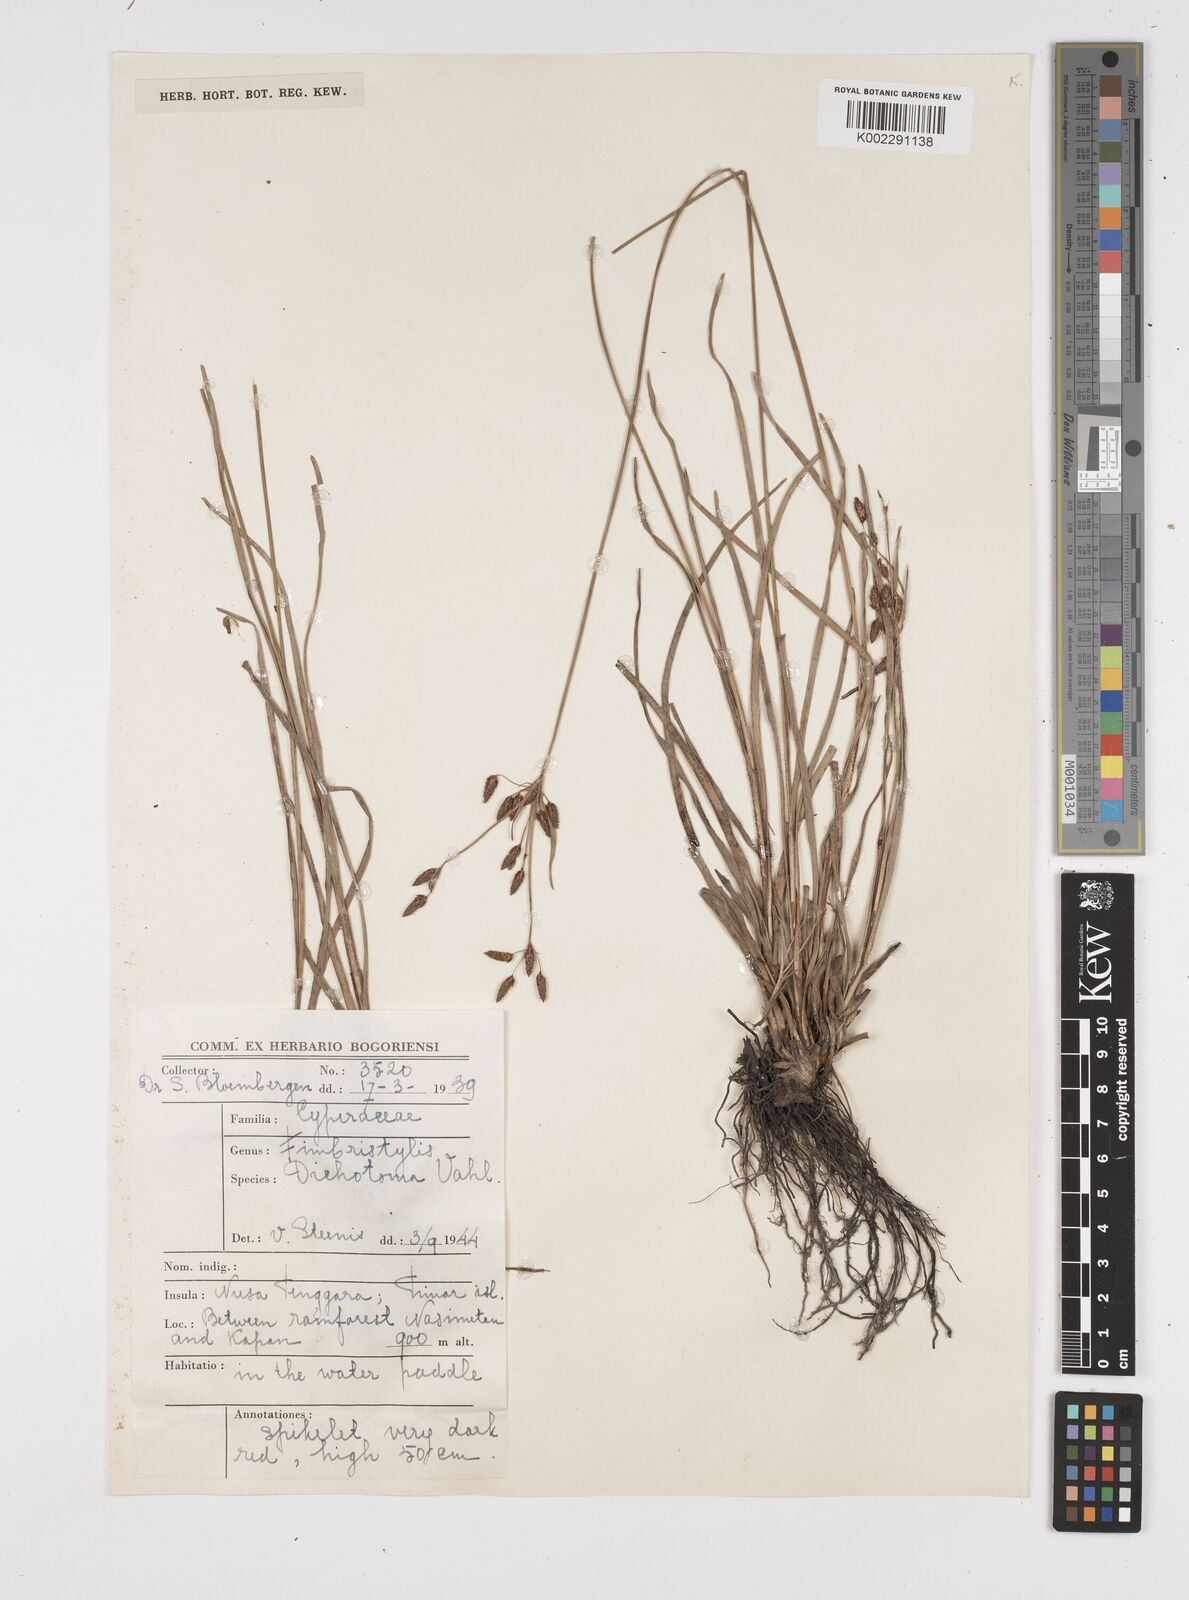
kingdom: Plantae
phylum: Tracheophyta
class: Liliopsida
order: Poales
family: Cyperaceae
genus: Fimbristylis
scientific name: Fimbristylis dichotoma
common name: Forked fimbry
